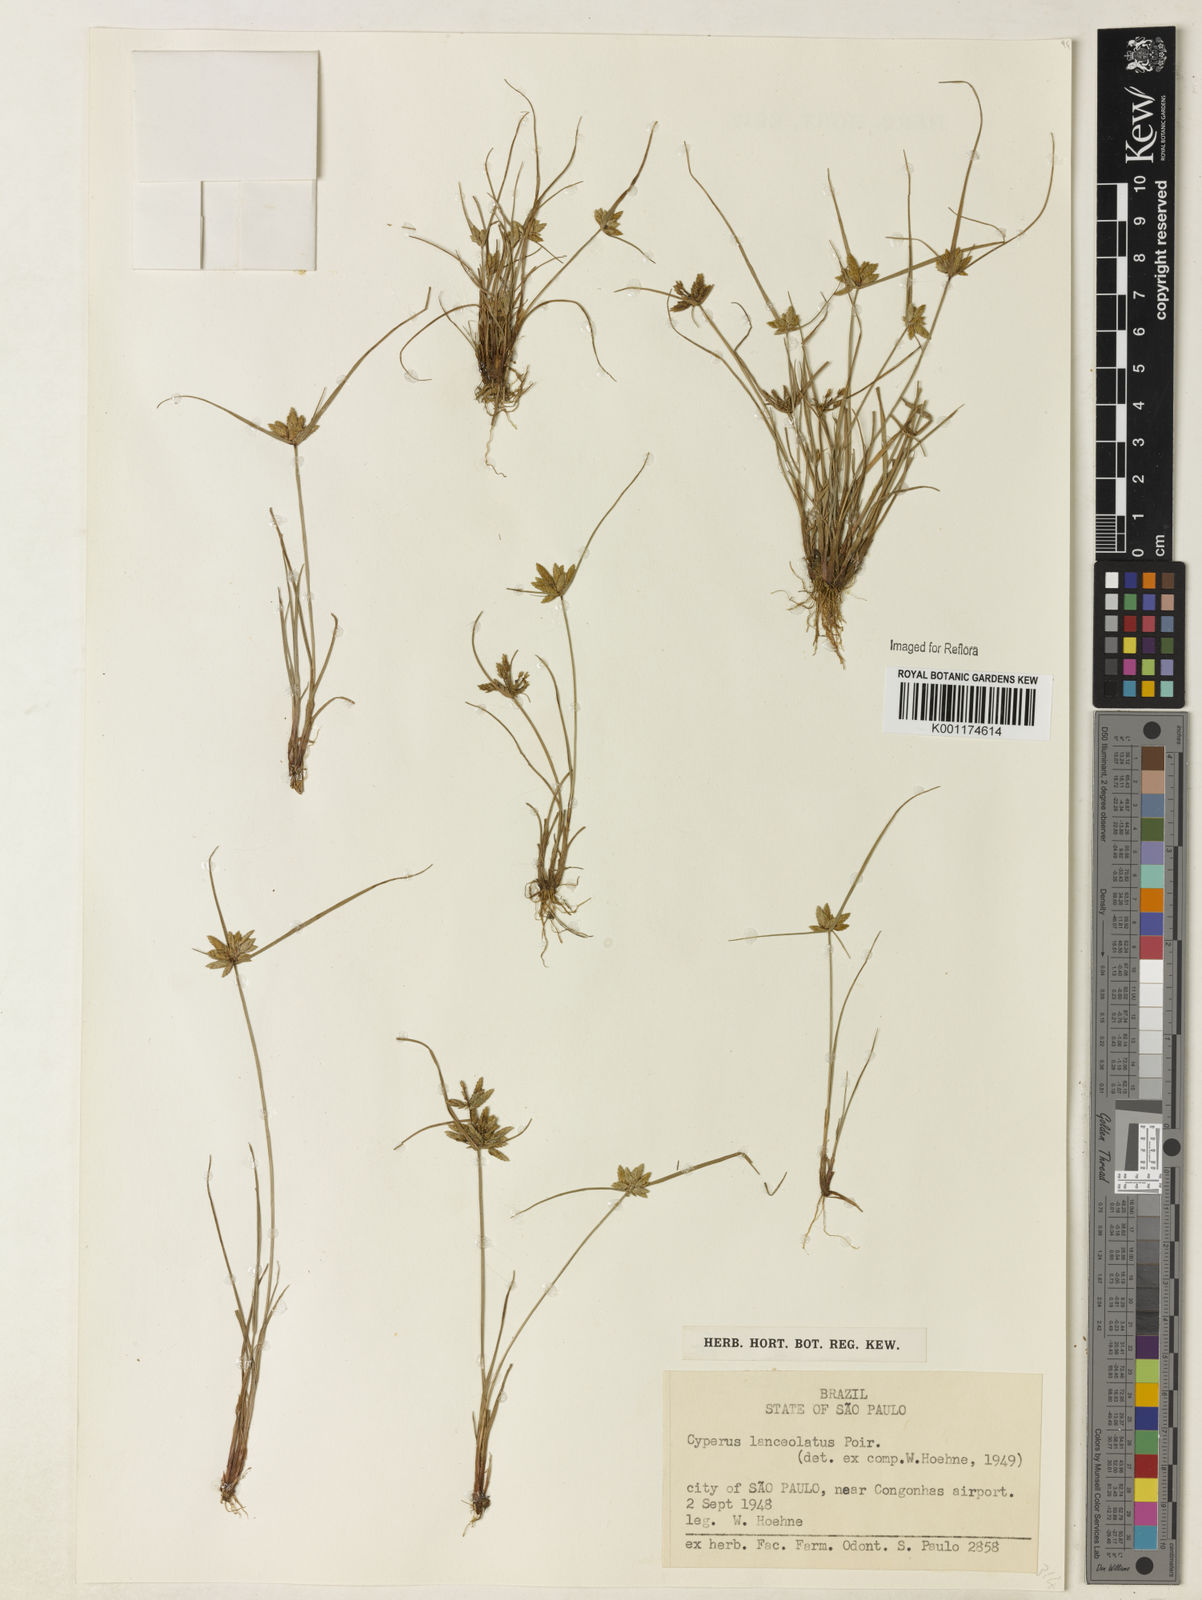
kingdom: Plantae
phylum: Tracheophyta
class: Liliopsida
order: Poales
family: Cyperaceae
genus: Cyperus
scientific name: Cyperus flavescens
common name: Yellow galingale
